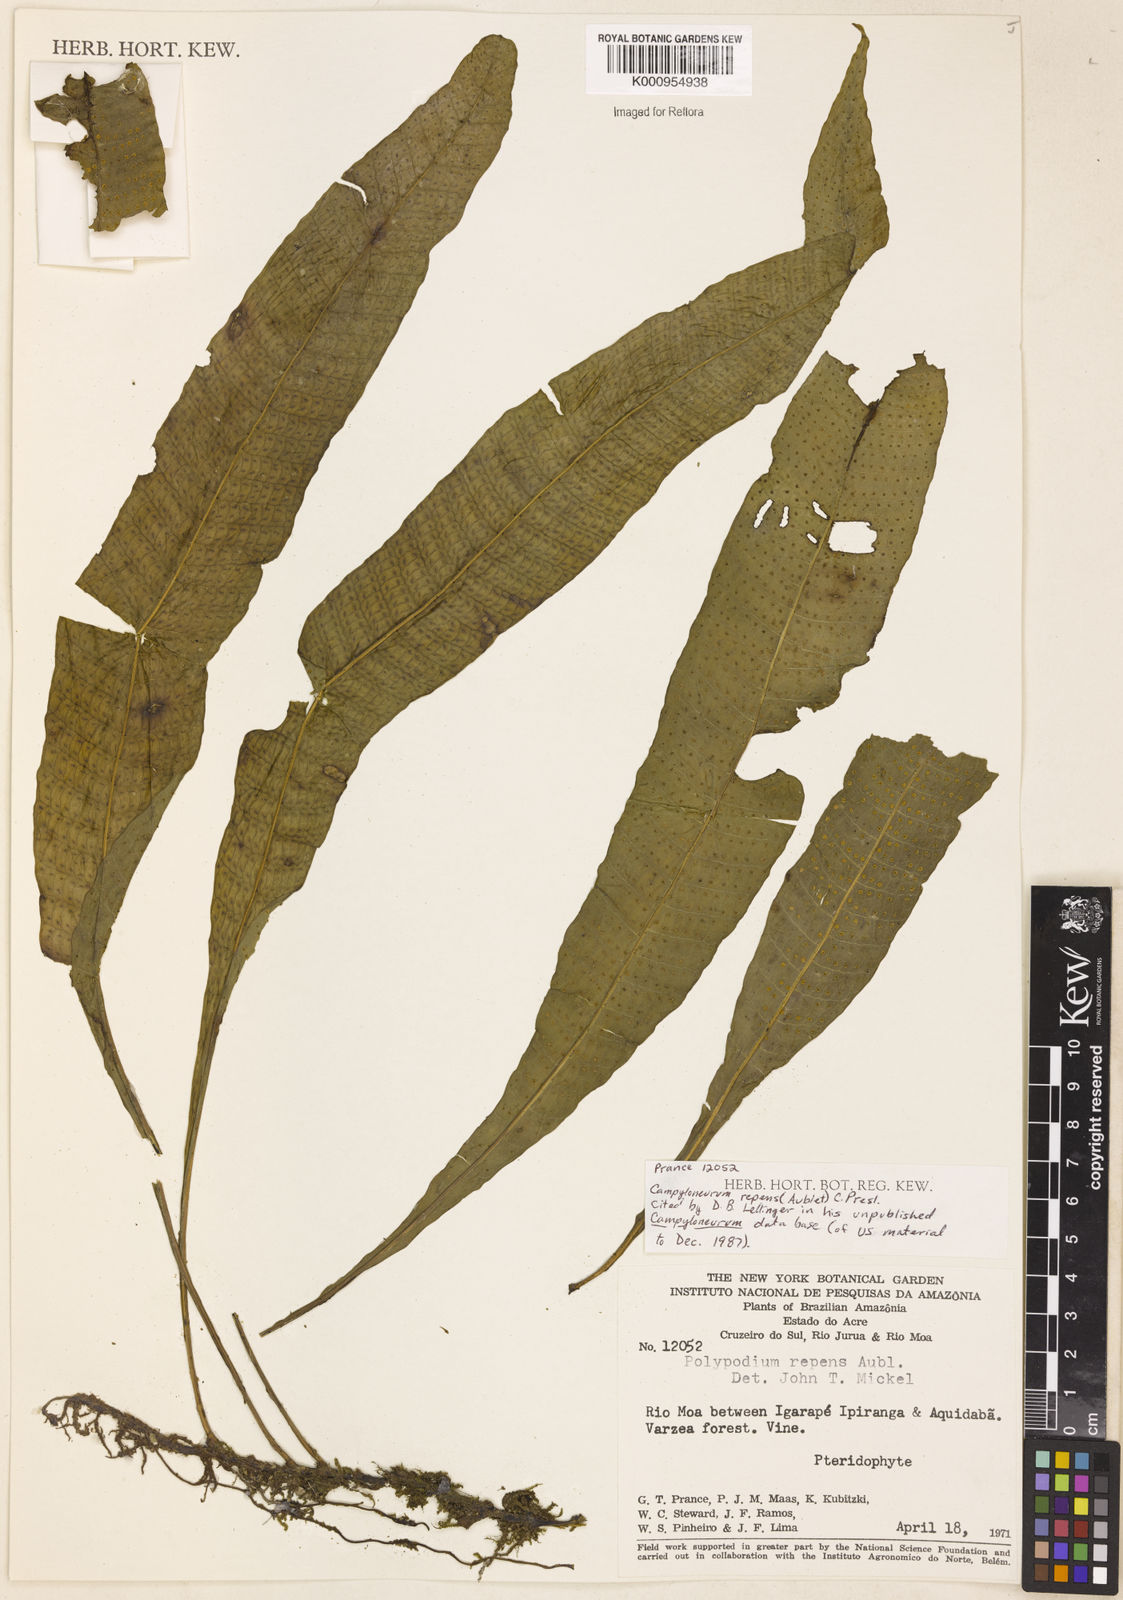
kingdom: Plantae
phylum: Tracheophyta
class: Polypodiopsida
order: Polypodiales
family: Polypodiaceae
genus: Campyloneurum
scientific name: Campyloneurum repens
